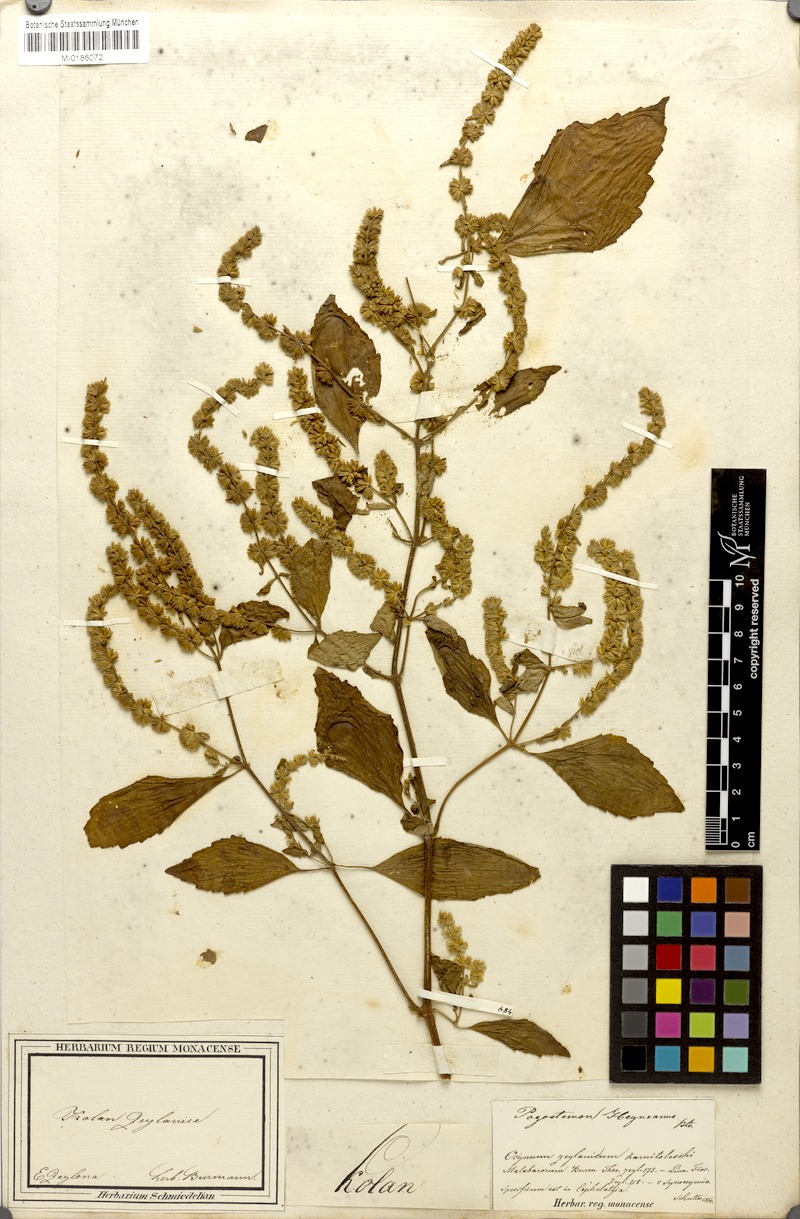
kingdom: Plantae
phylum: Tracheophyta
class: Magnoliopsida
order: Lamiales
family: Lamiaceae
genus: Pogostemon
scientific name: Pogostemon heyneanus
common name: Indian patchouli
